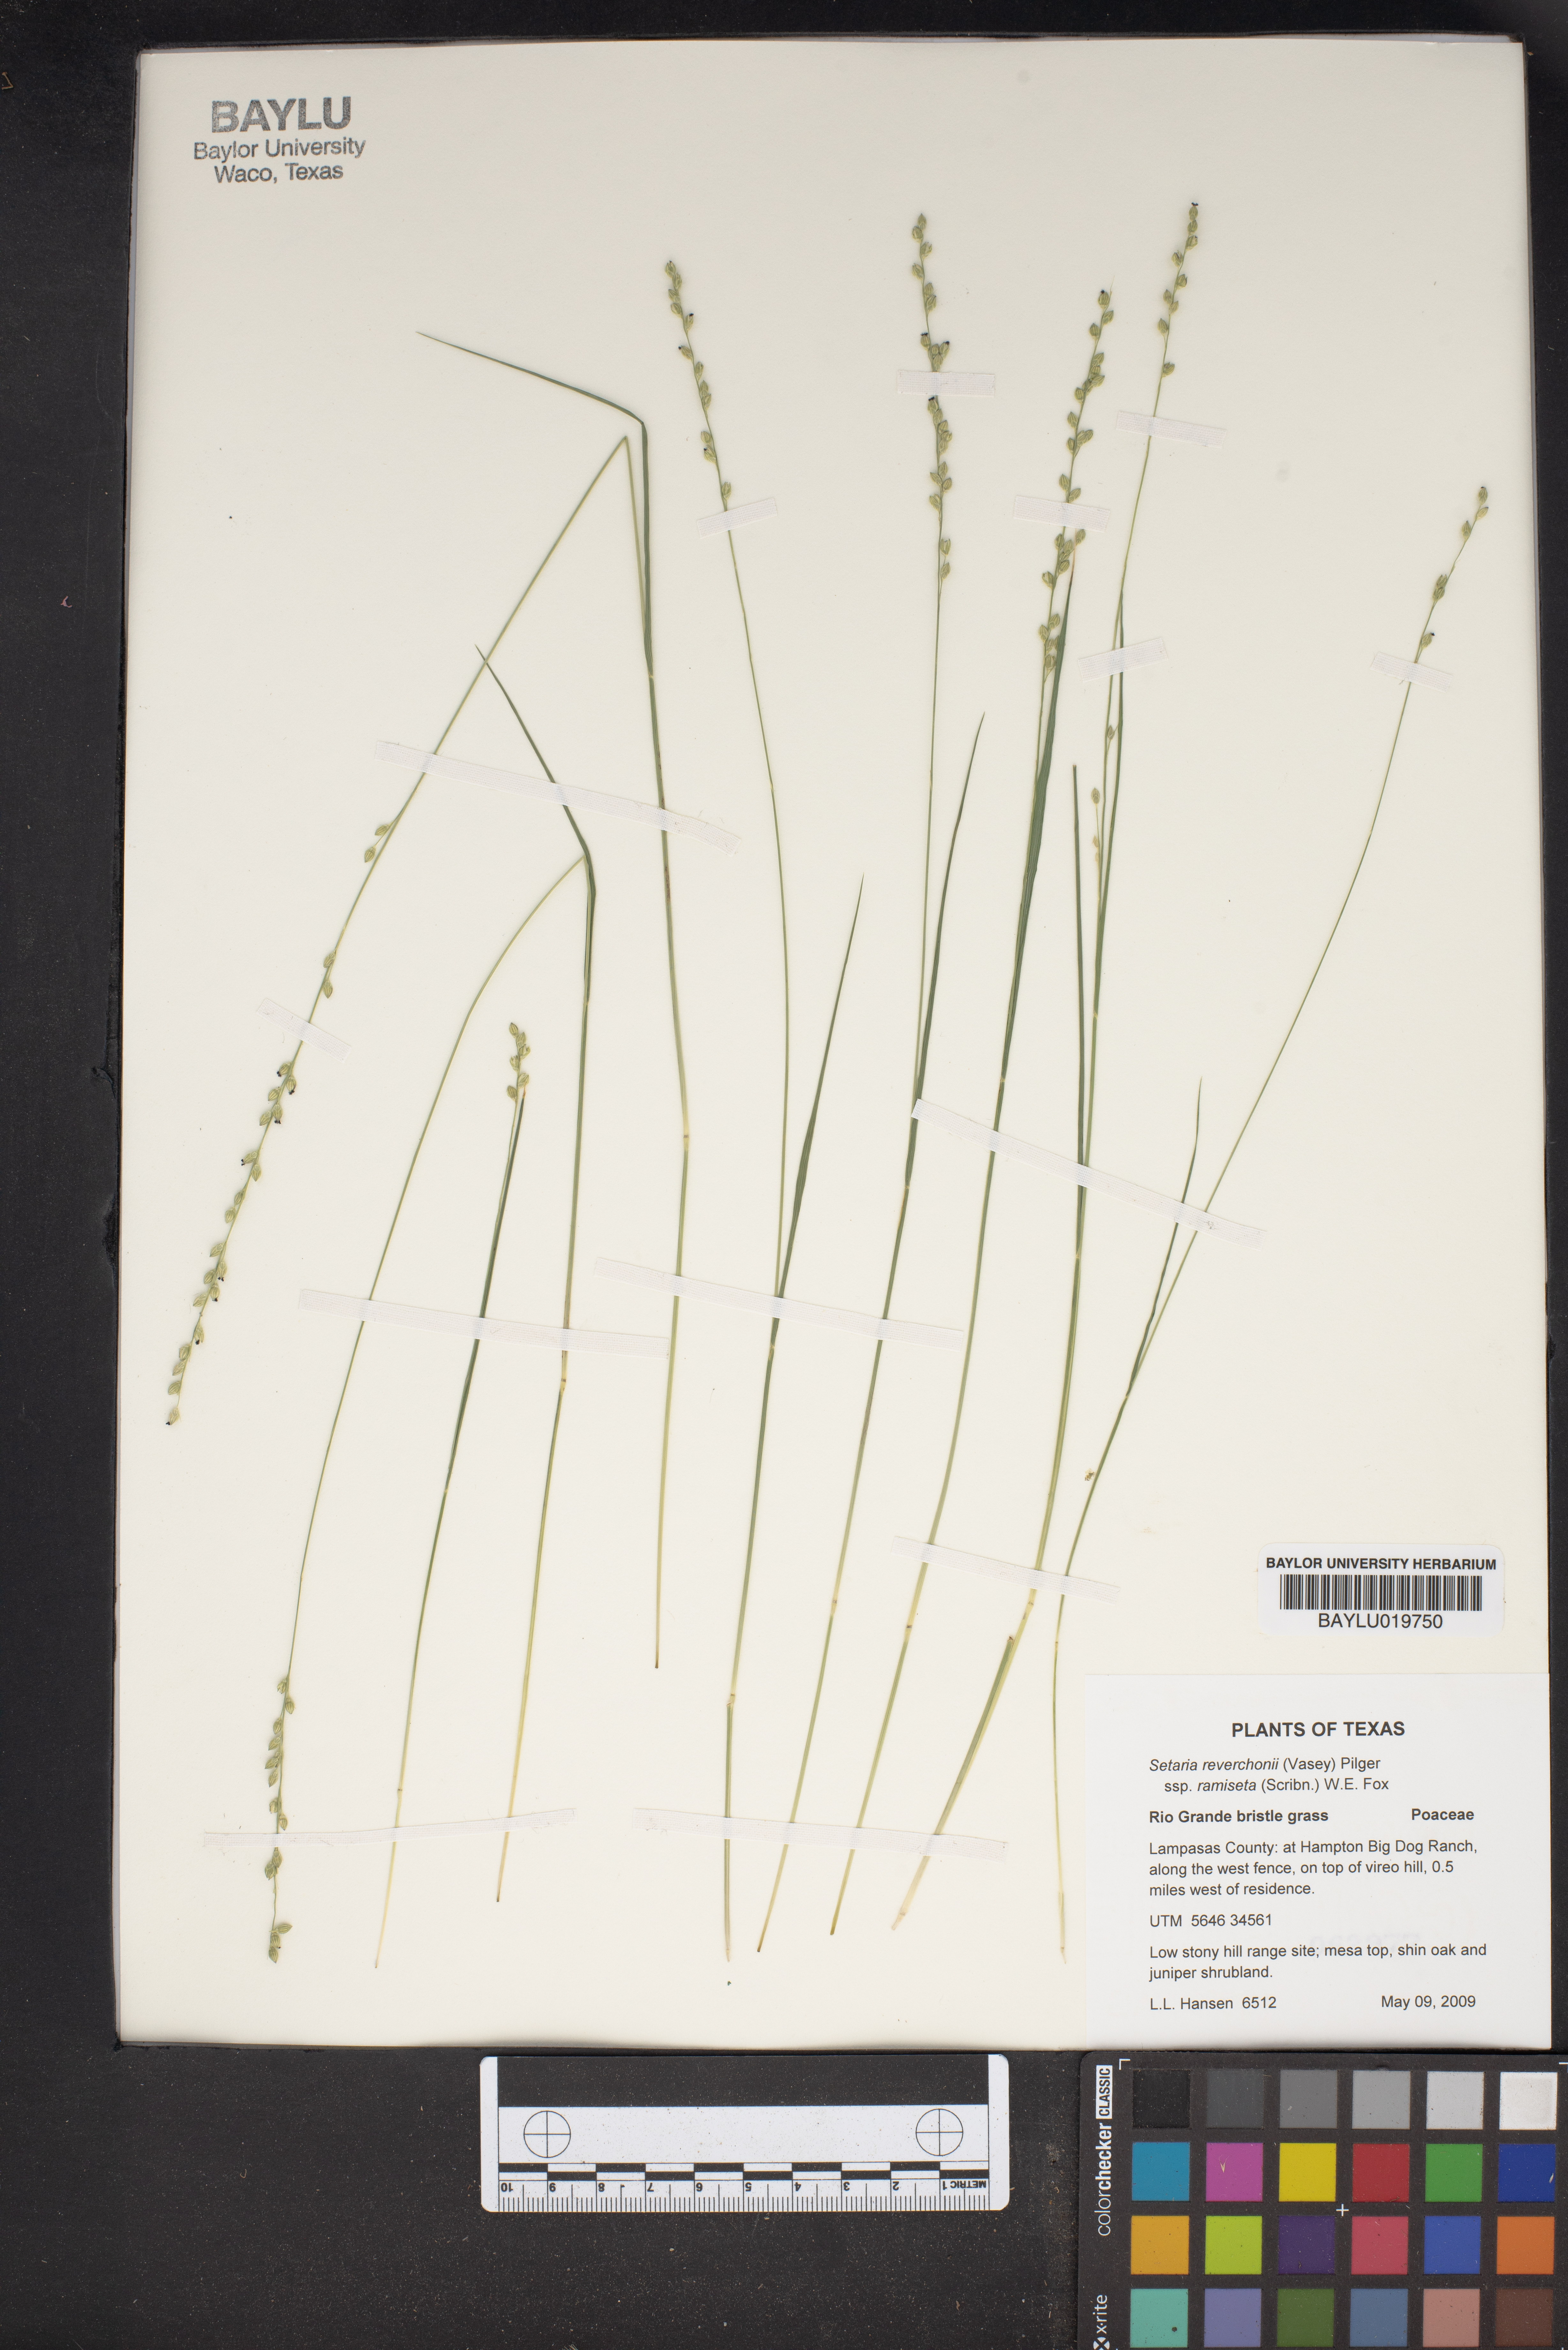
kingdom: Plantae
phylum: Tracheophyta
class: Liliopsida
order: Poales
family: Poaceae
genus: Setaria
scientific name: Setaria reverchonii
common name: Reverchon's bristle grass
